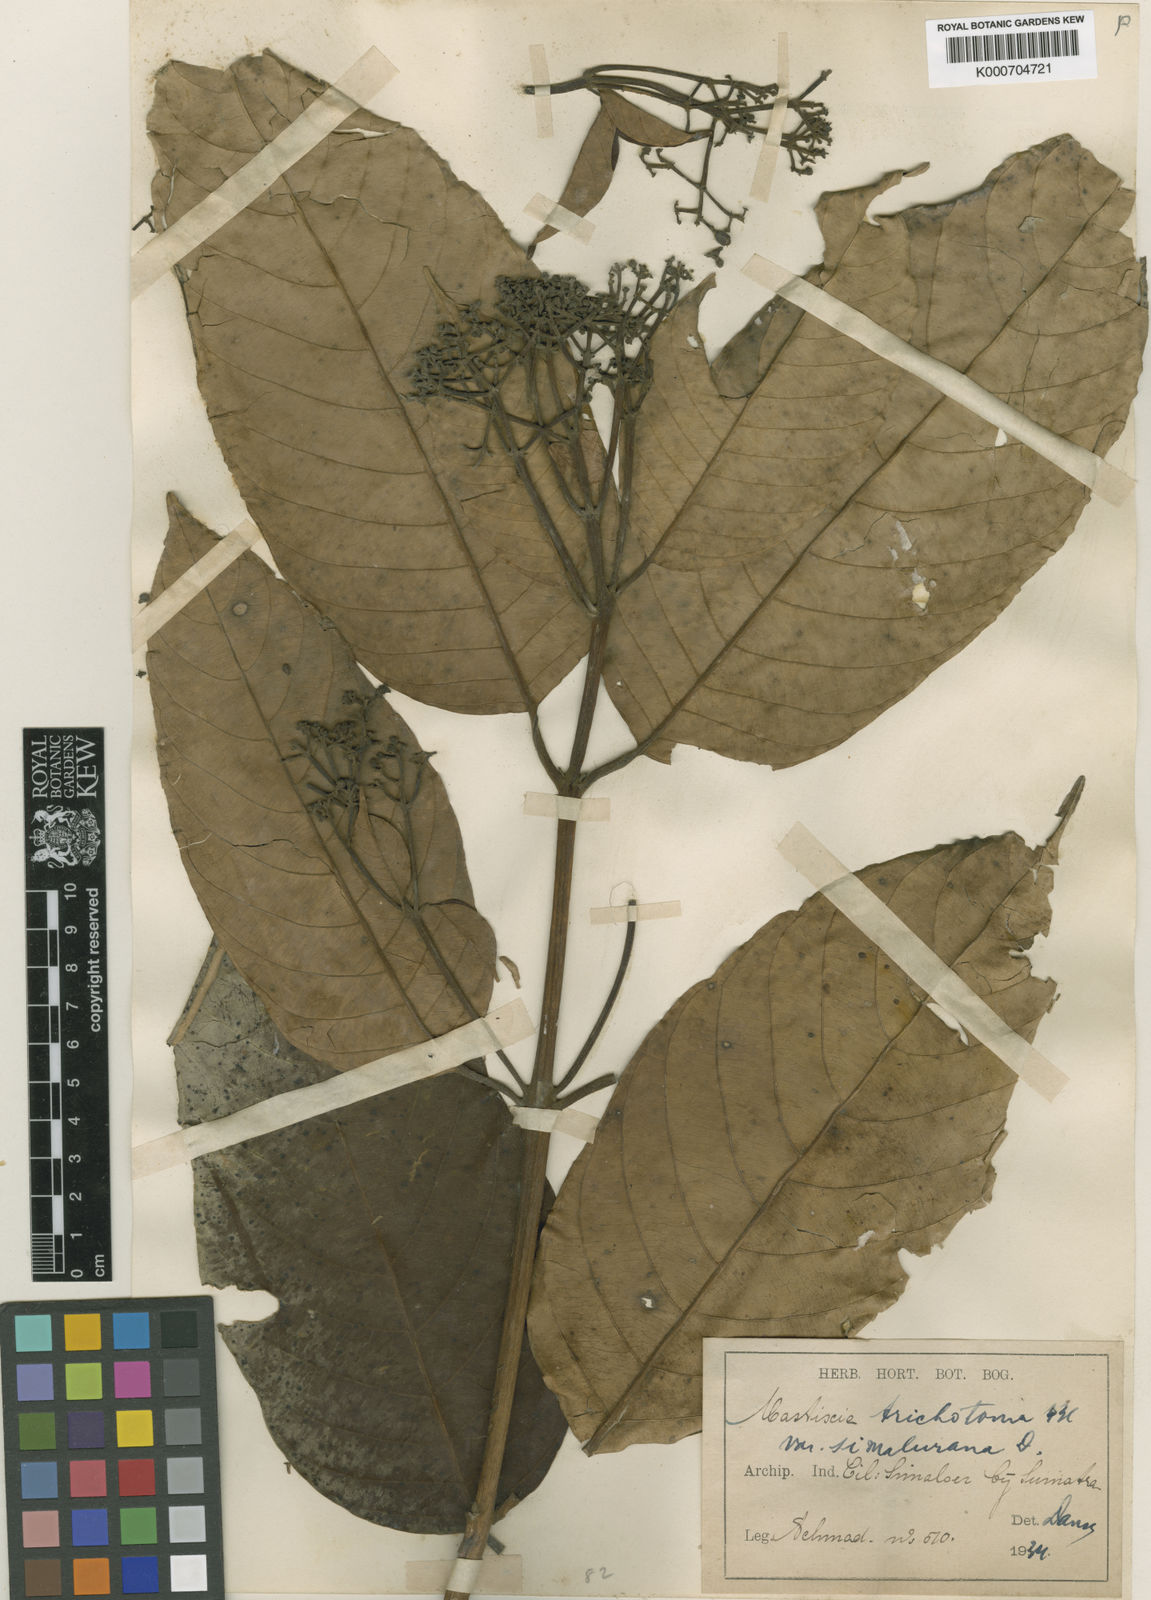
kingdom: Plantae
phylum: Tracheophyta
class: Magnoliopsida
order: Cornales
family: Nyssaceae
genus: Mastixia
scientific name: Mastixia trichotoma
